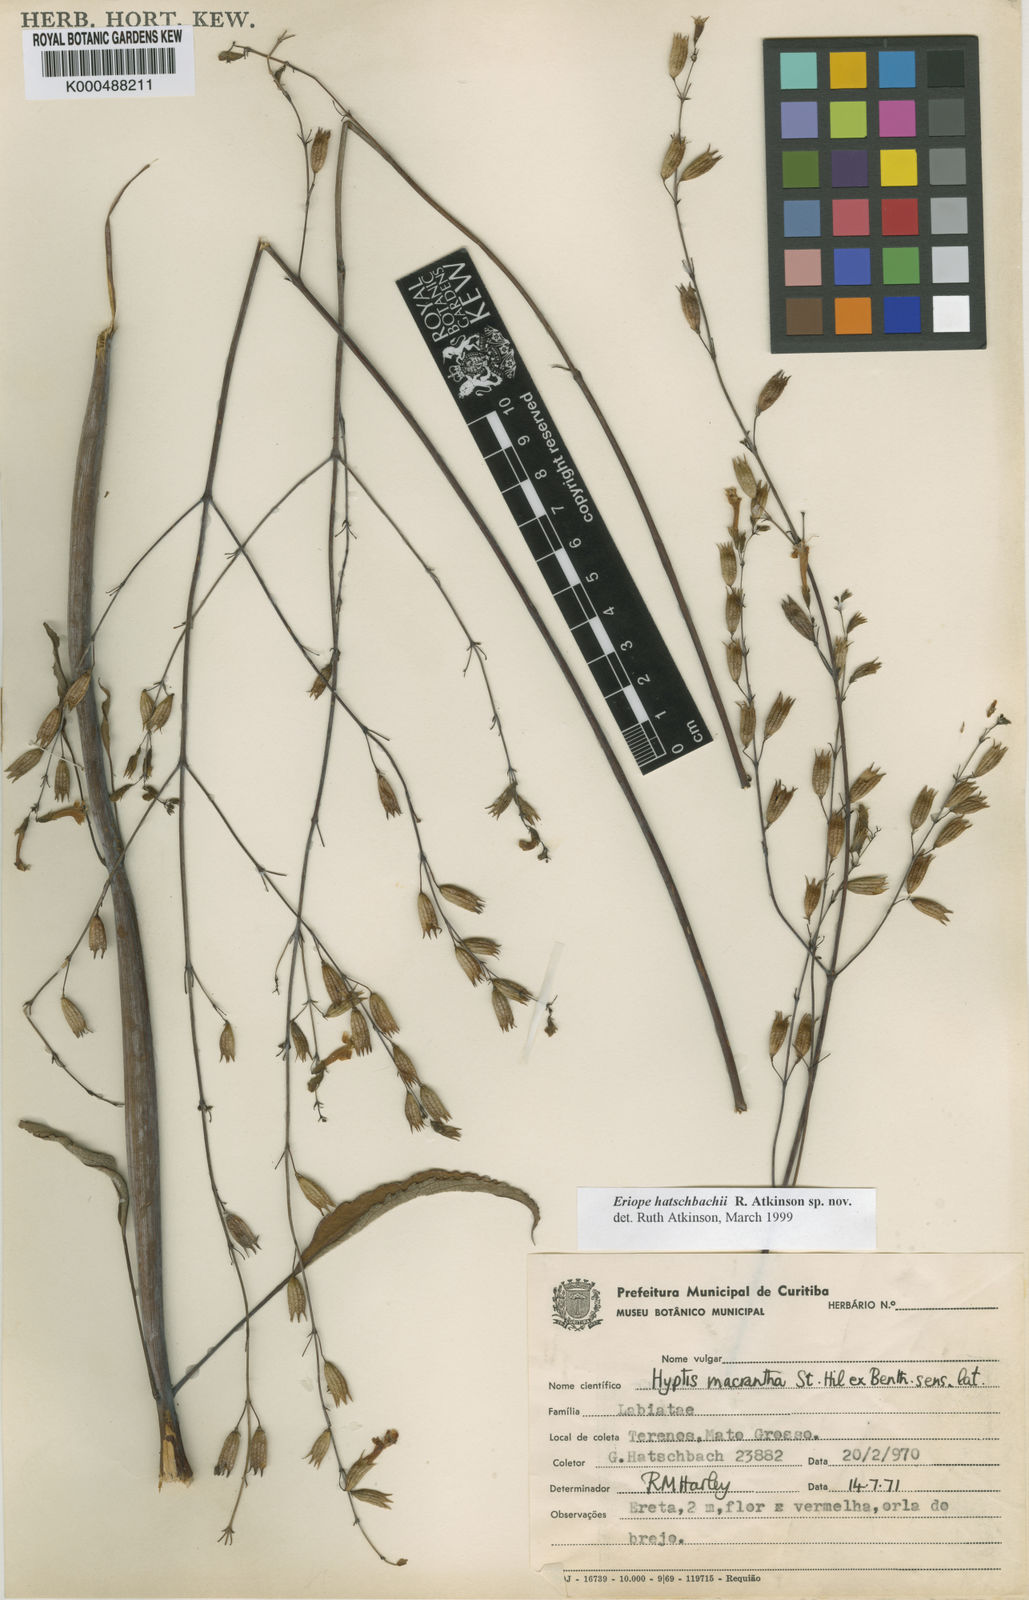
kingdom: Plantae
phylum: Tracheophyta
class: Magnoliopsida
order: Lamiales
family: Lamiaceae
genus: Hypenia
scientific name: Hypenia
